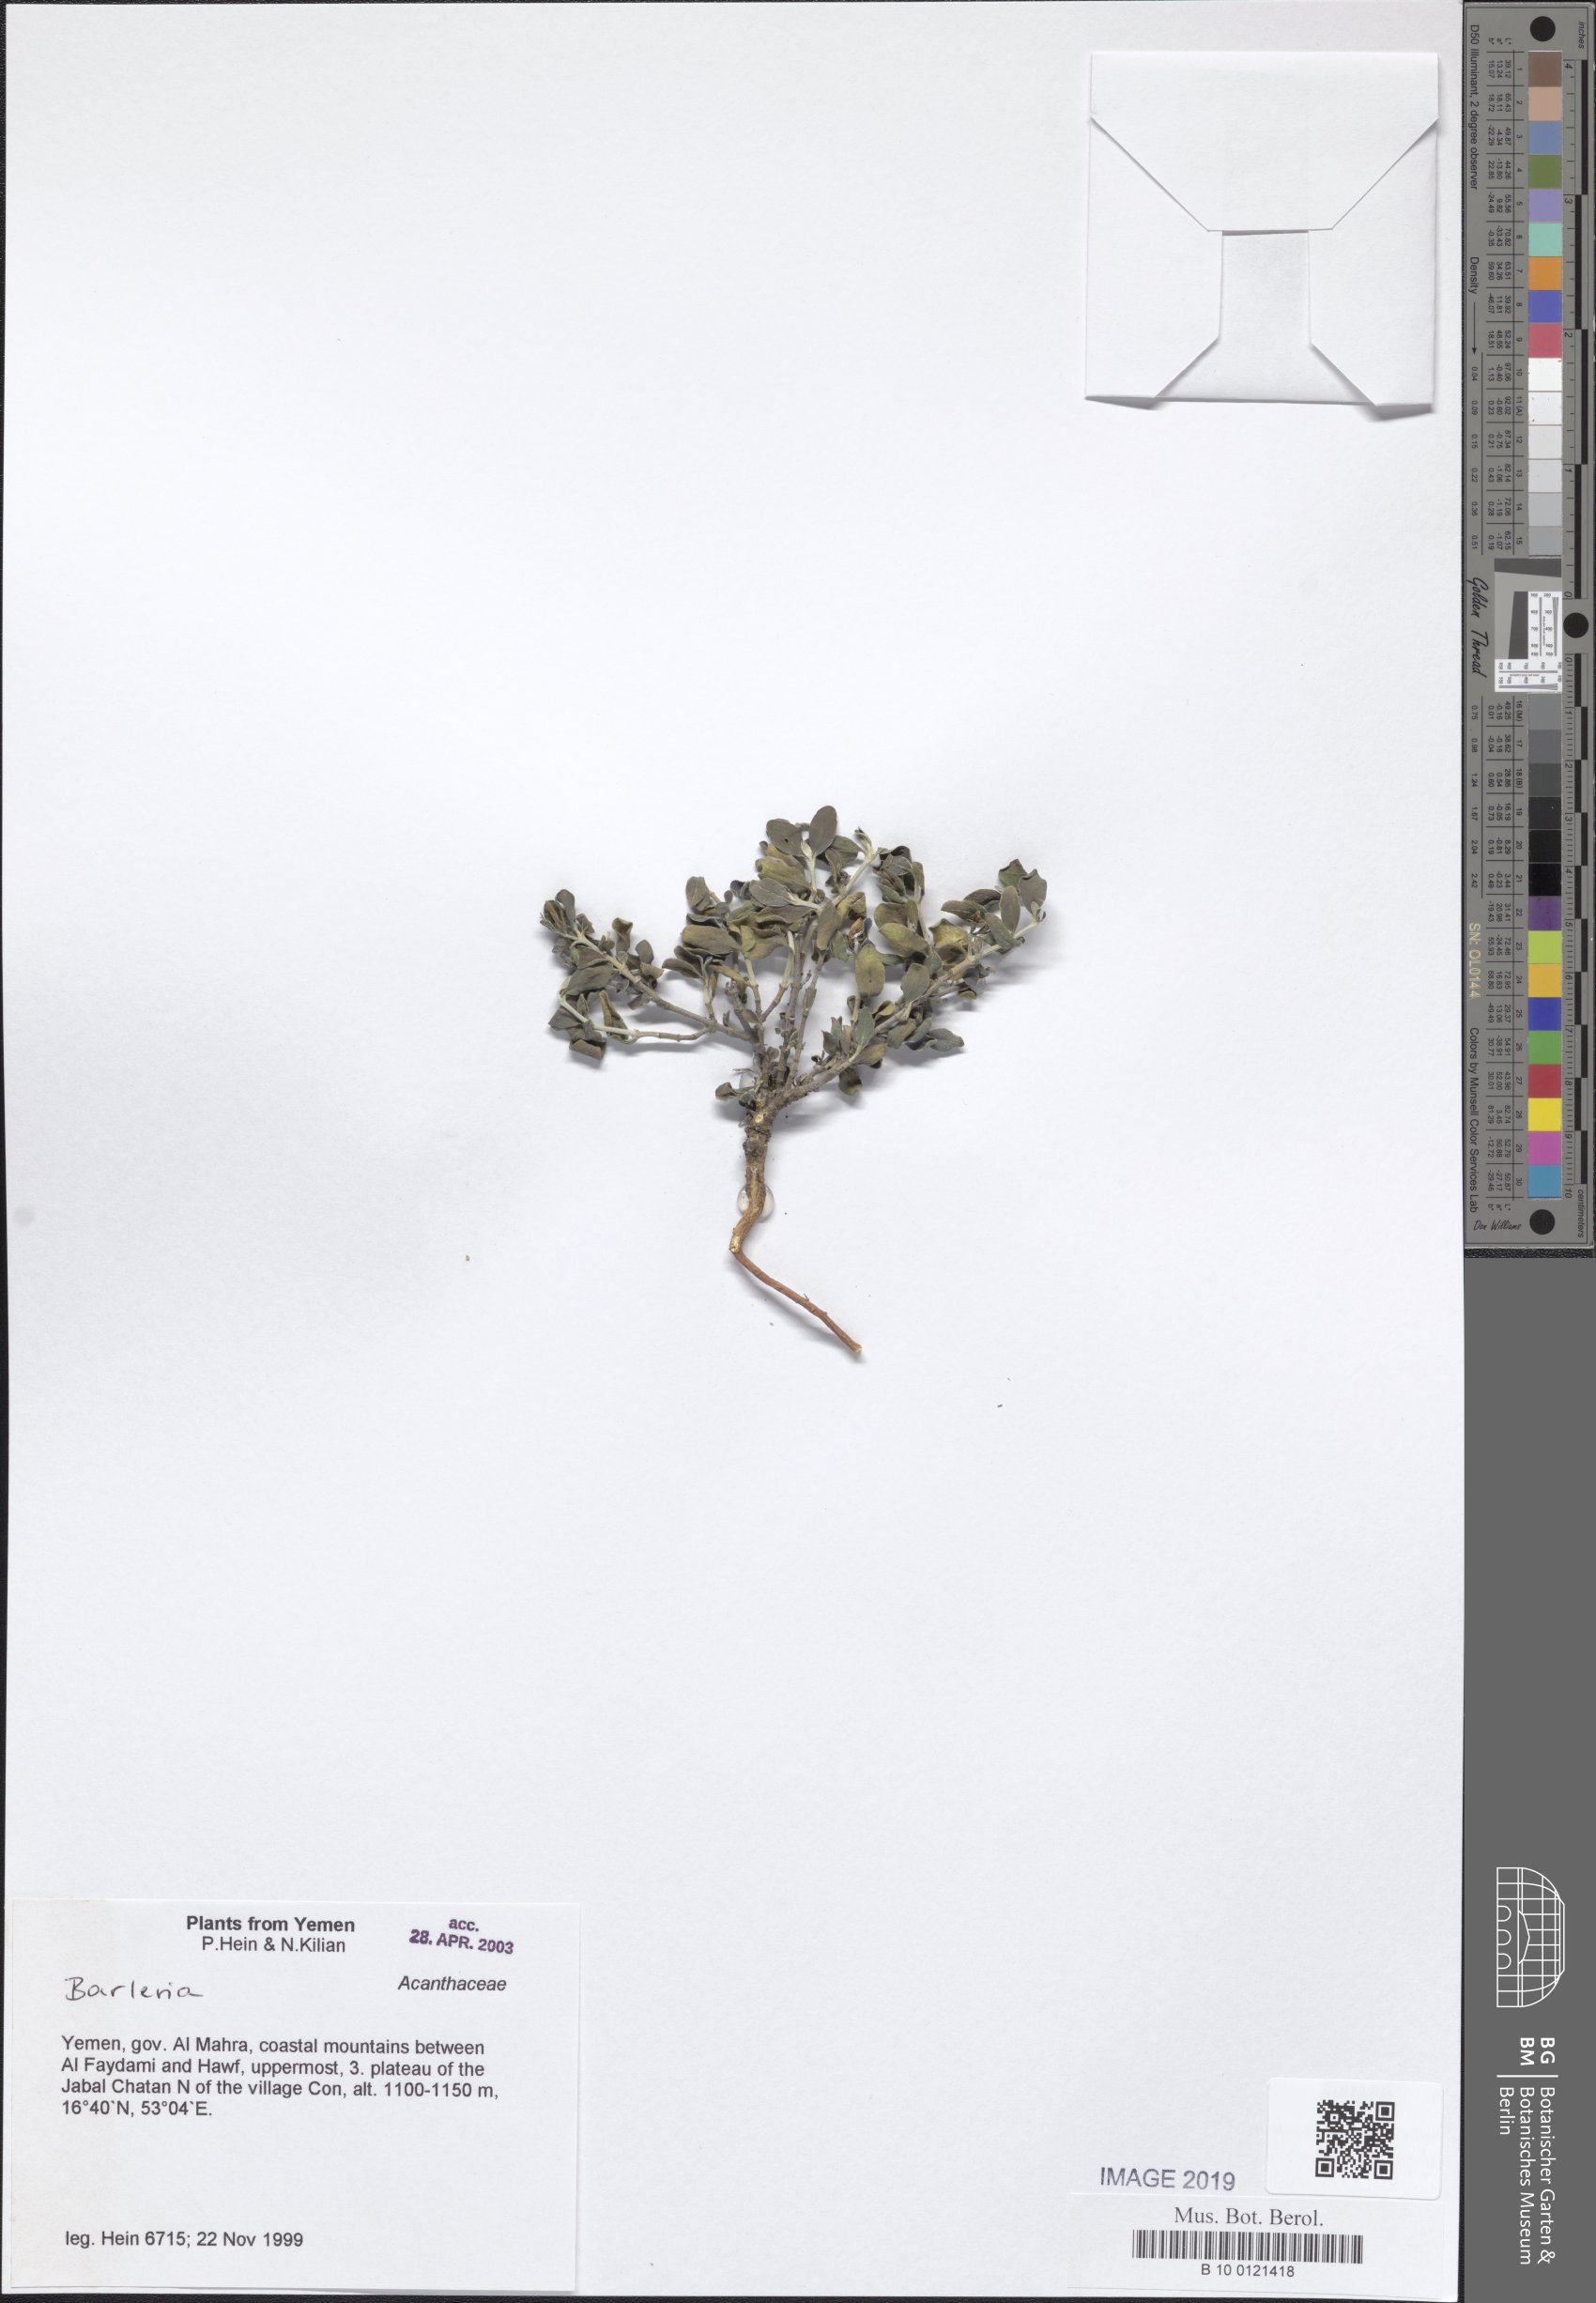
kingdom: Plantae
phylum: Tracheophyta
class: Magnoliopsida
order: Lamiales
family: Acanthaceae
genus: Barleria
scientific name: Barleria
